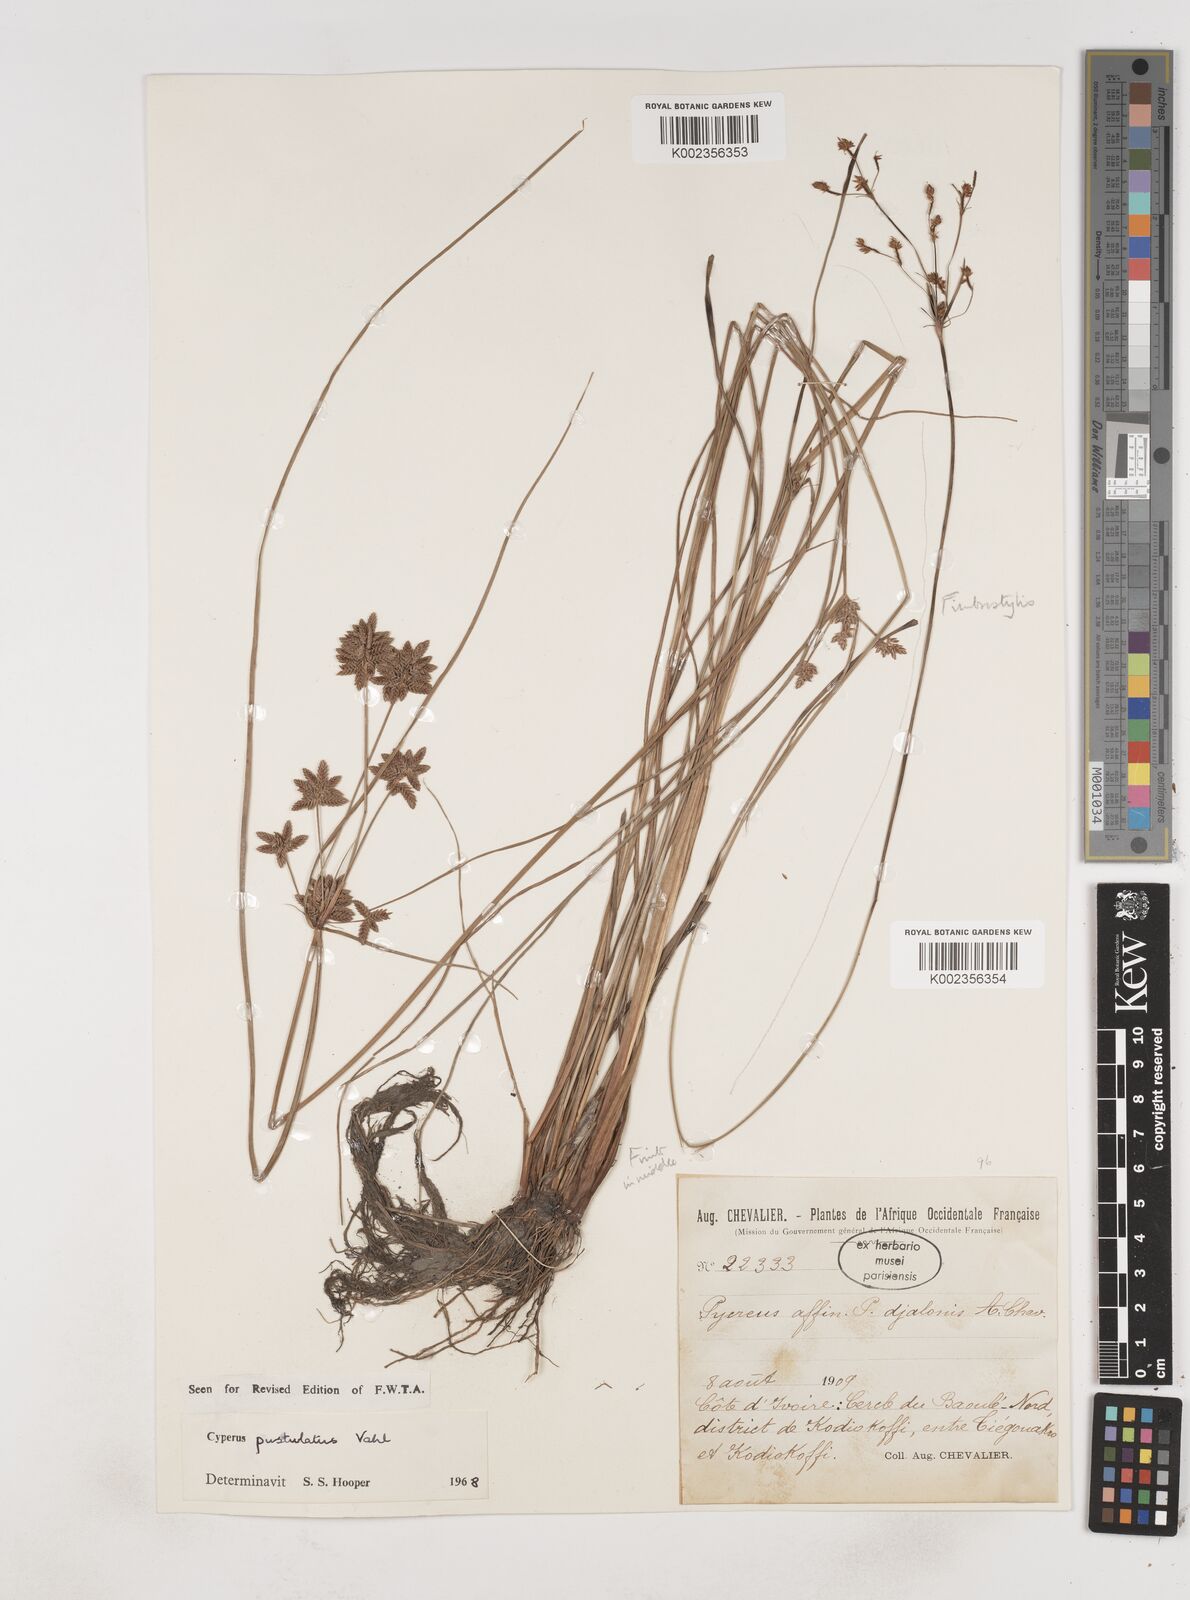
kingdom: Plantae
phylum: Tracheophyta
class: Liliopsida
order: Poales
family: Cyperaceae
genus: Cyperus
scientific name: Cyperus pustulatus
